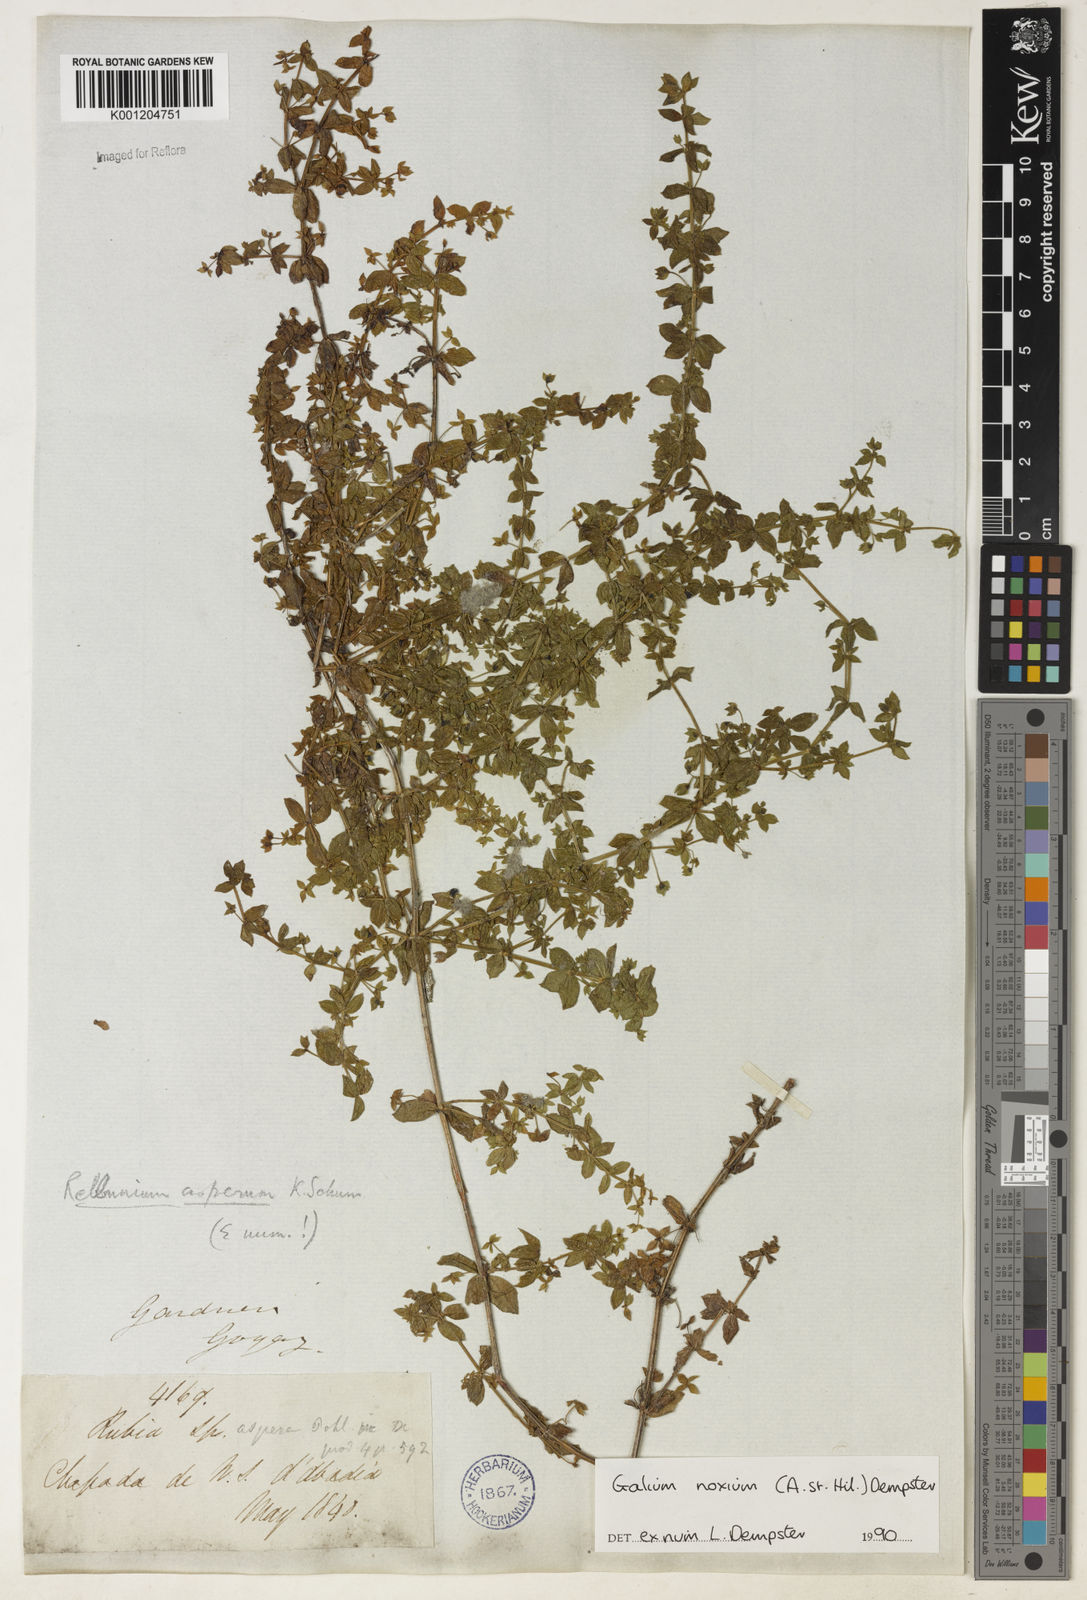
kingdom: Plantae
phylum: Tracheophyta
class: Magnoliopsida
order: Gentianales
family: Rubiaceae
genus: Galium
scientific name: Galium noxium
